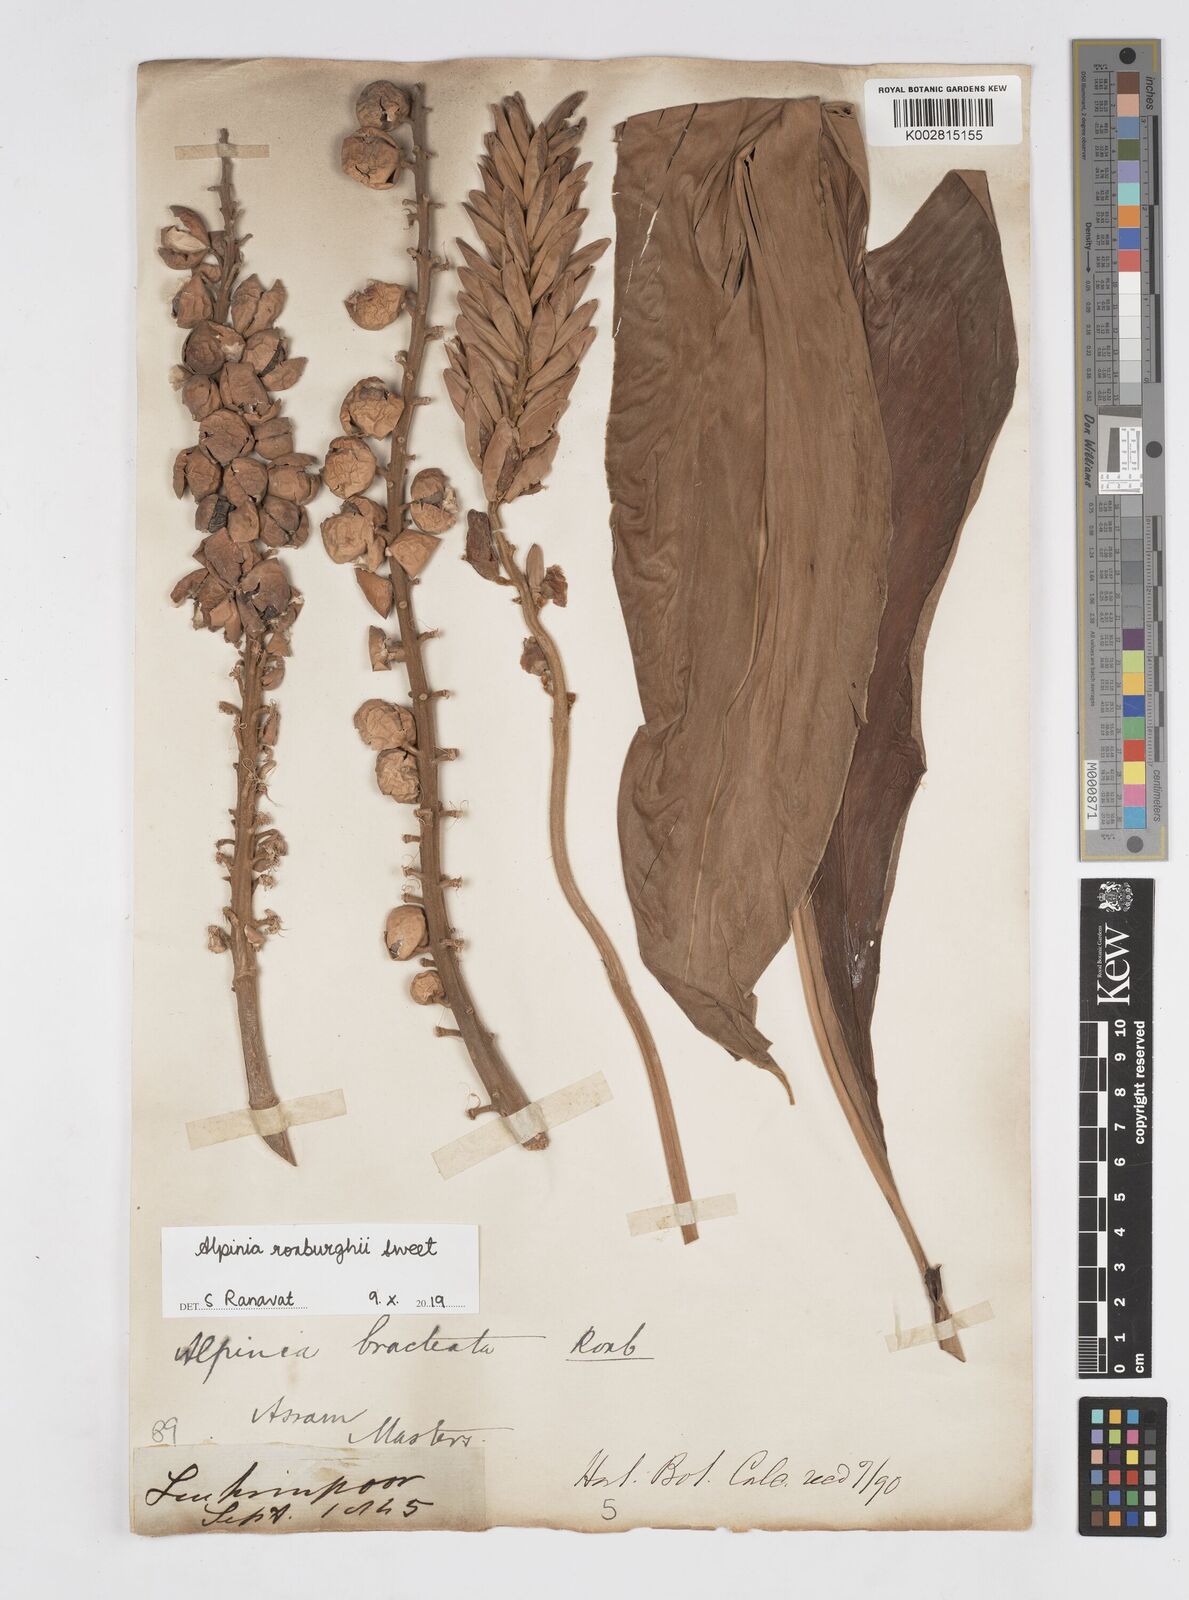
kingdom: Plantae
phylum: Tracheophyta
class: Liliopsida
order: Zingiberales
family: Zingiberaceae
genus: Alpinia
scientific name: Alpinia roxburghii
